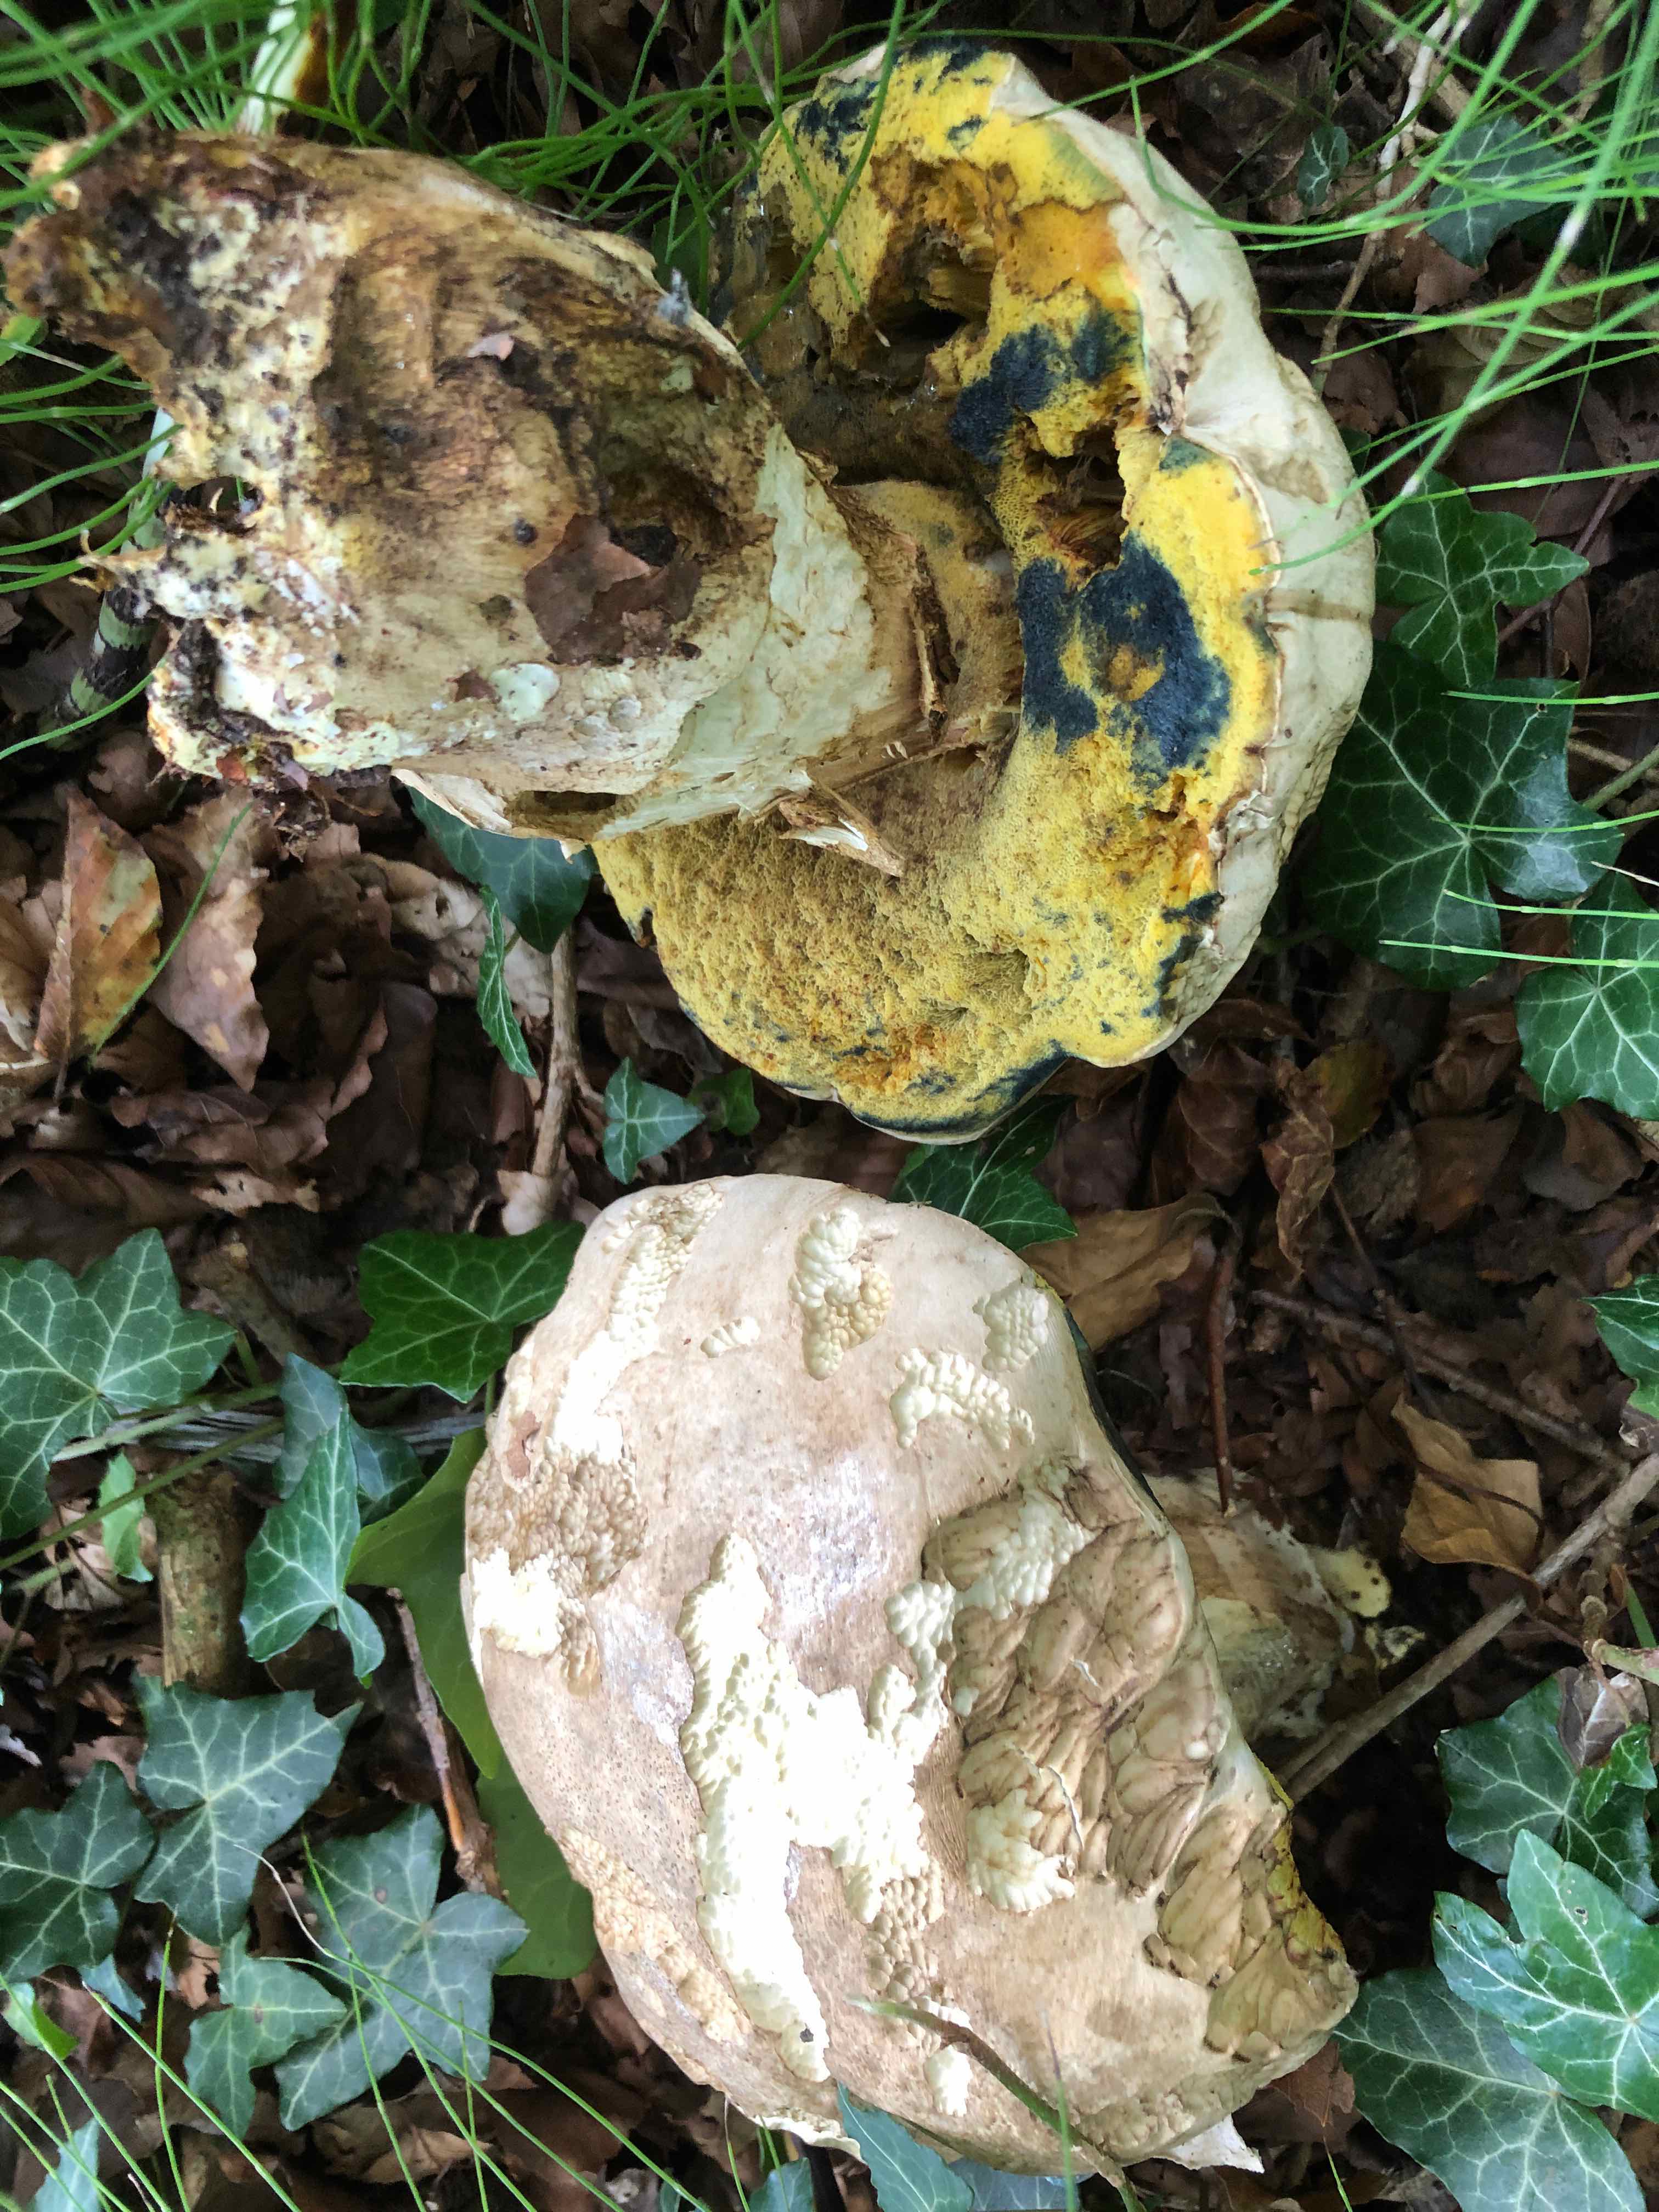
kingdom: Fungi
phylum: Basidiomycota
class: Agaricomycetes
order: Boletales
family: Boletaceae
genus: Caloboletus
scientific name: Caloboletus radicans
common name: rod-rørhat
